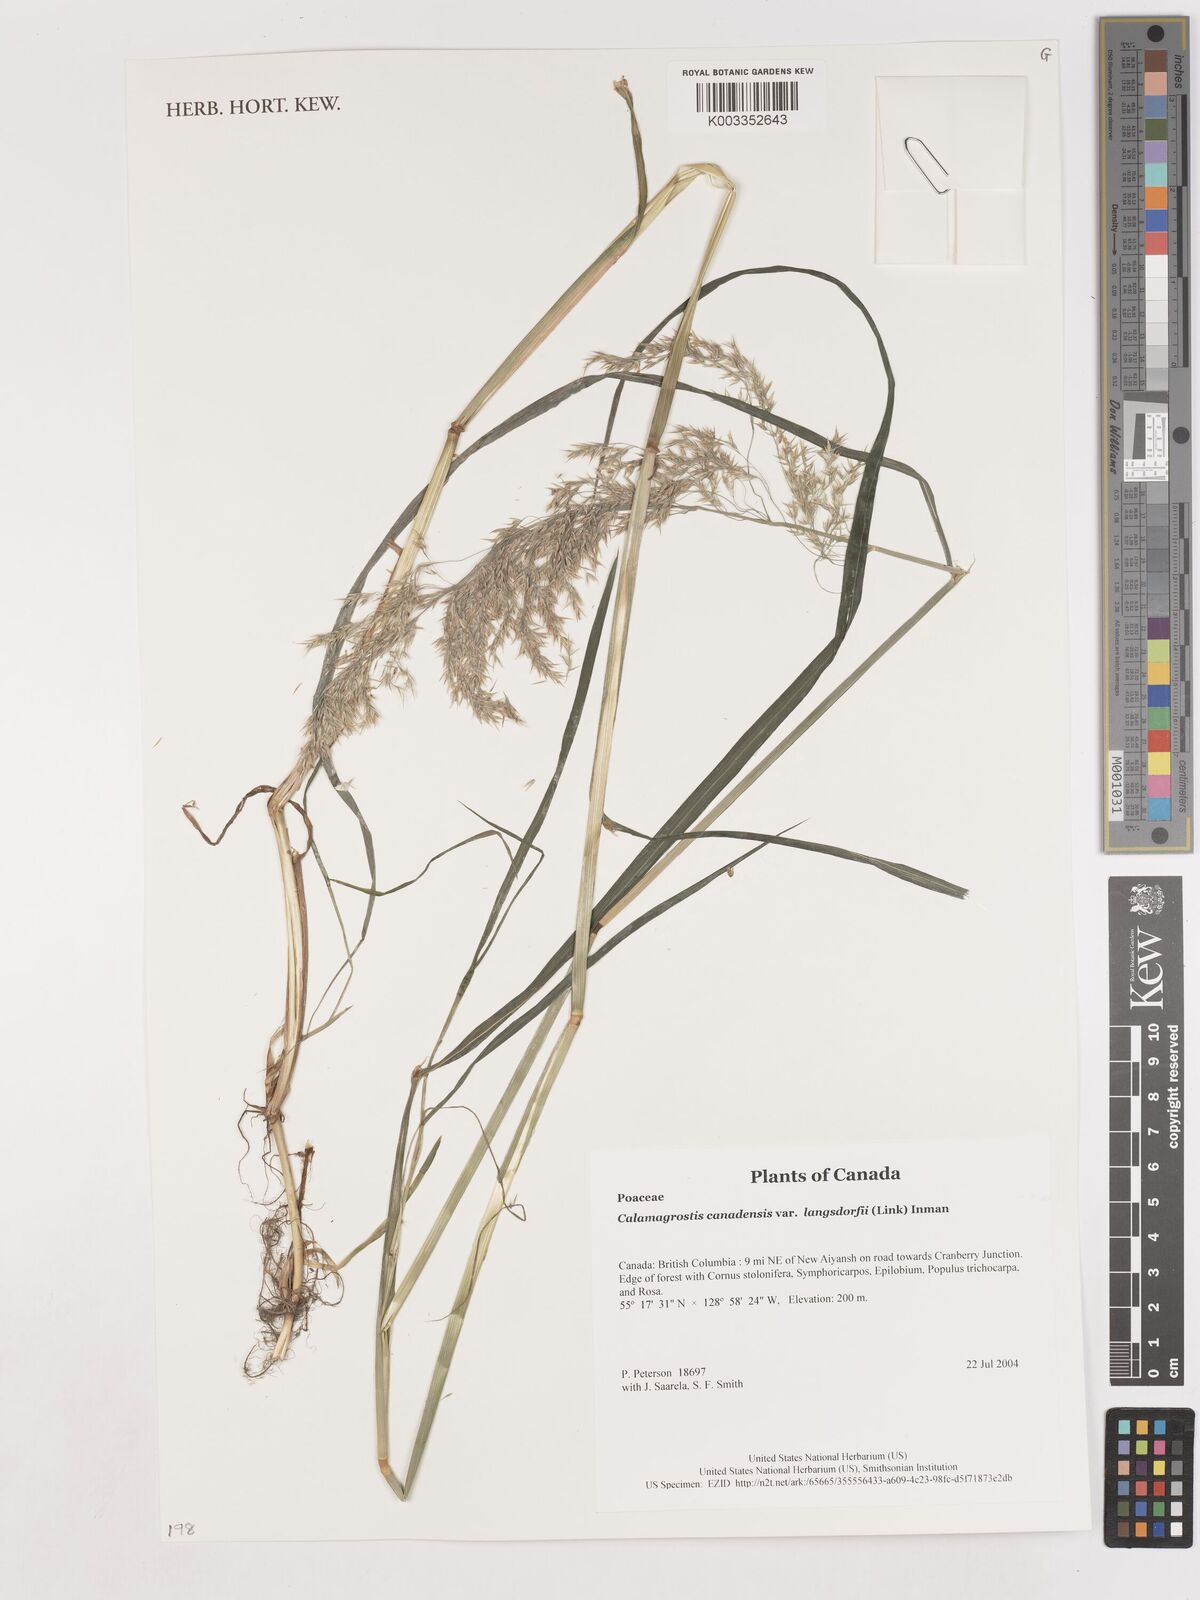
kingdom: Plantae
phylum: Tracheophyta
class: Liliopsida
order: Poales
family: Poaceae
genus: Calamagrostis
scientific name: Calamagrostis canadensis
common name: Canada bluejoint
